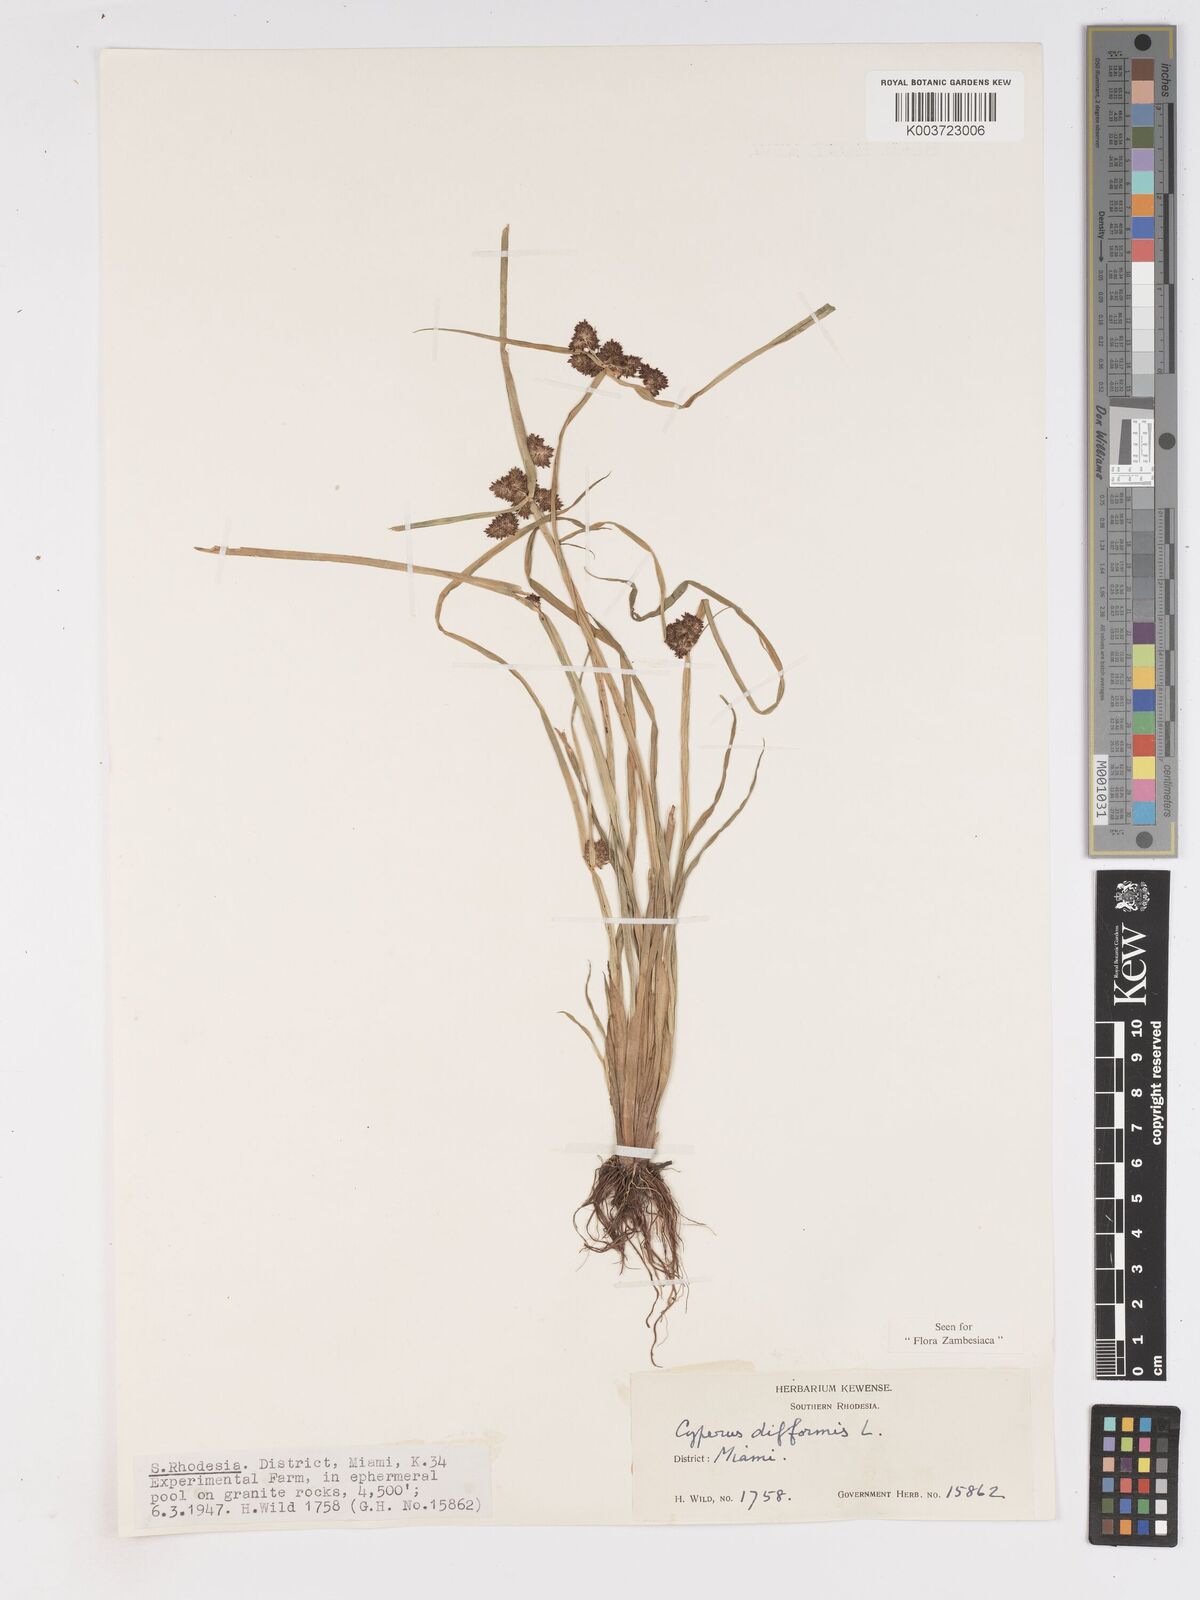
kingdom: Plantae
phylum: Tracheophyta
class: Liliopsida
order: Poales
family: Cyperaceae
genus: Cyperus
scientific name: Cyperus difformis
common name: Variable flatsedge
